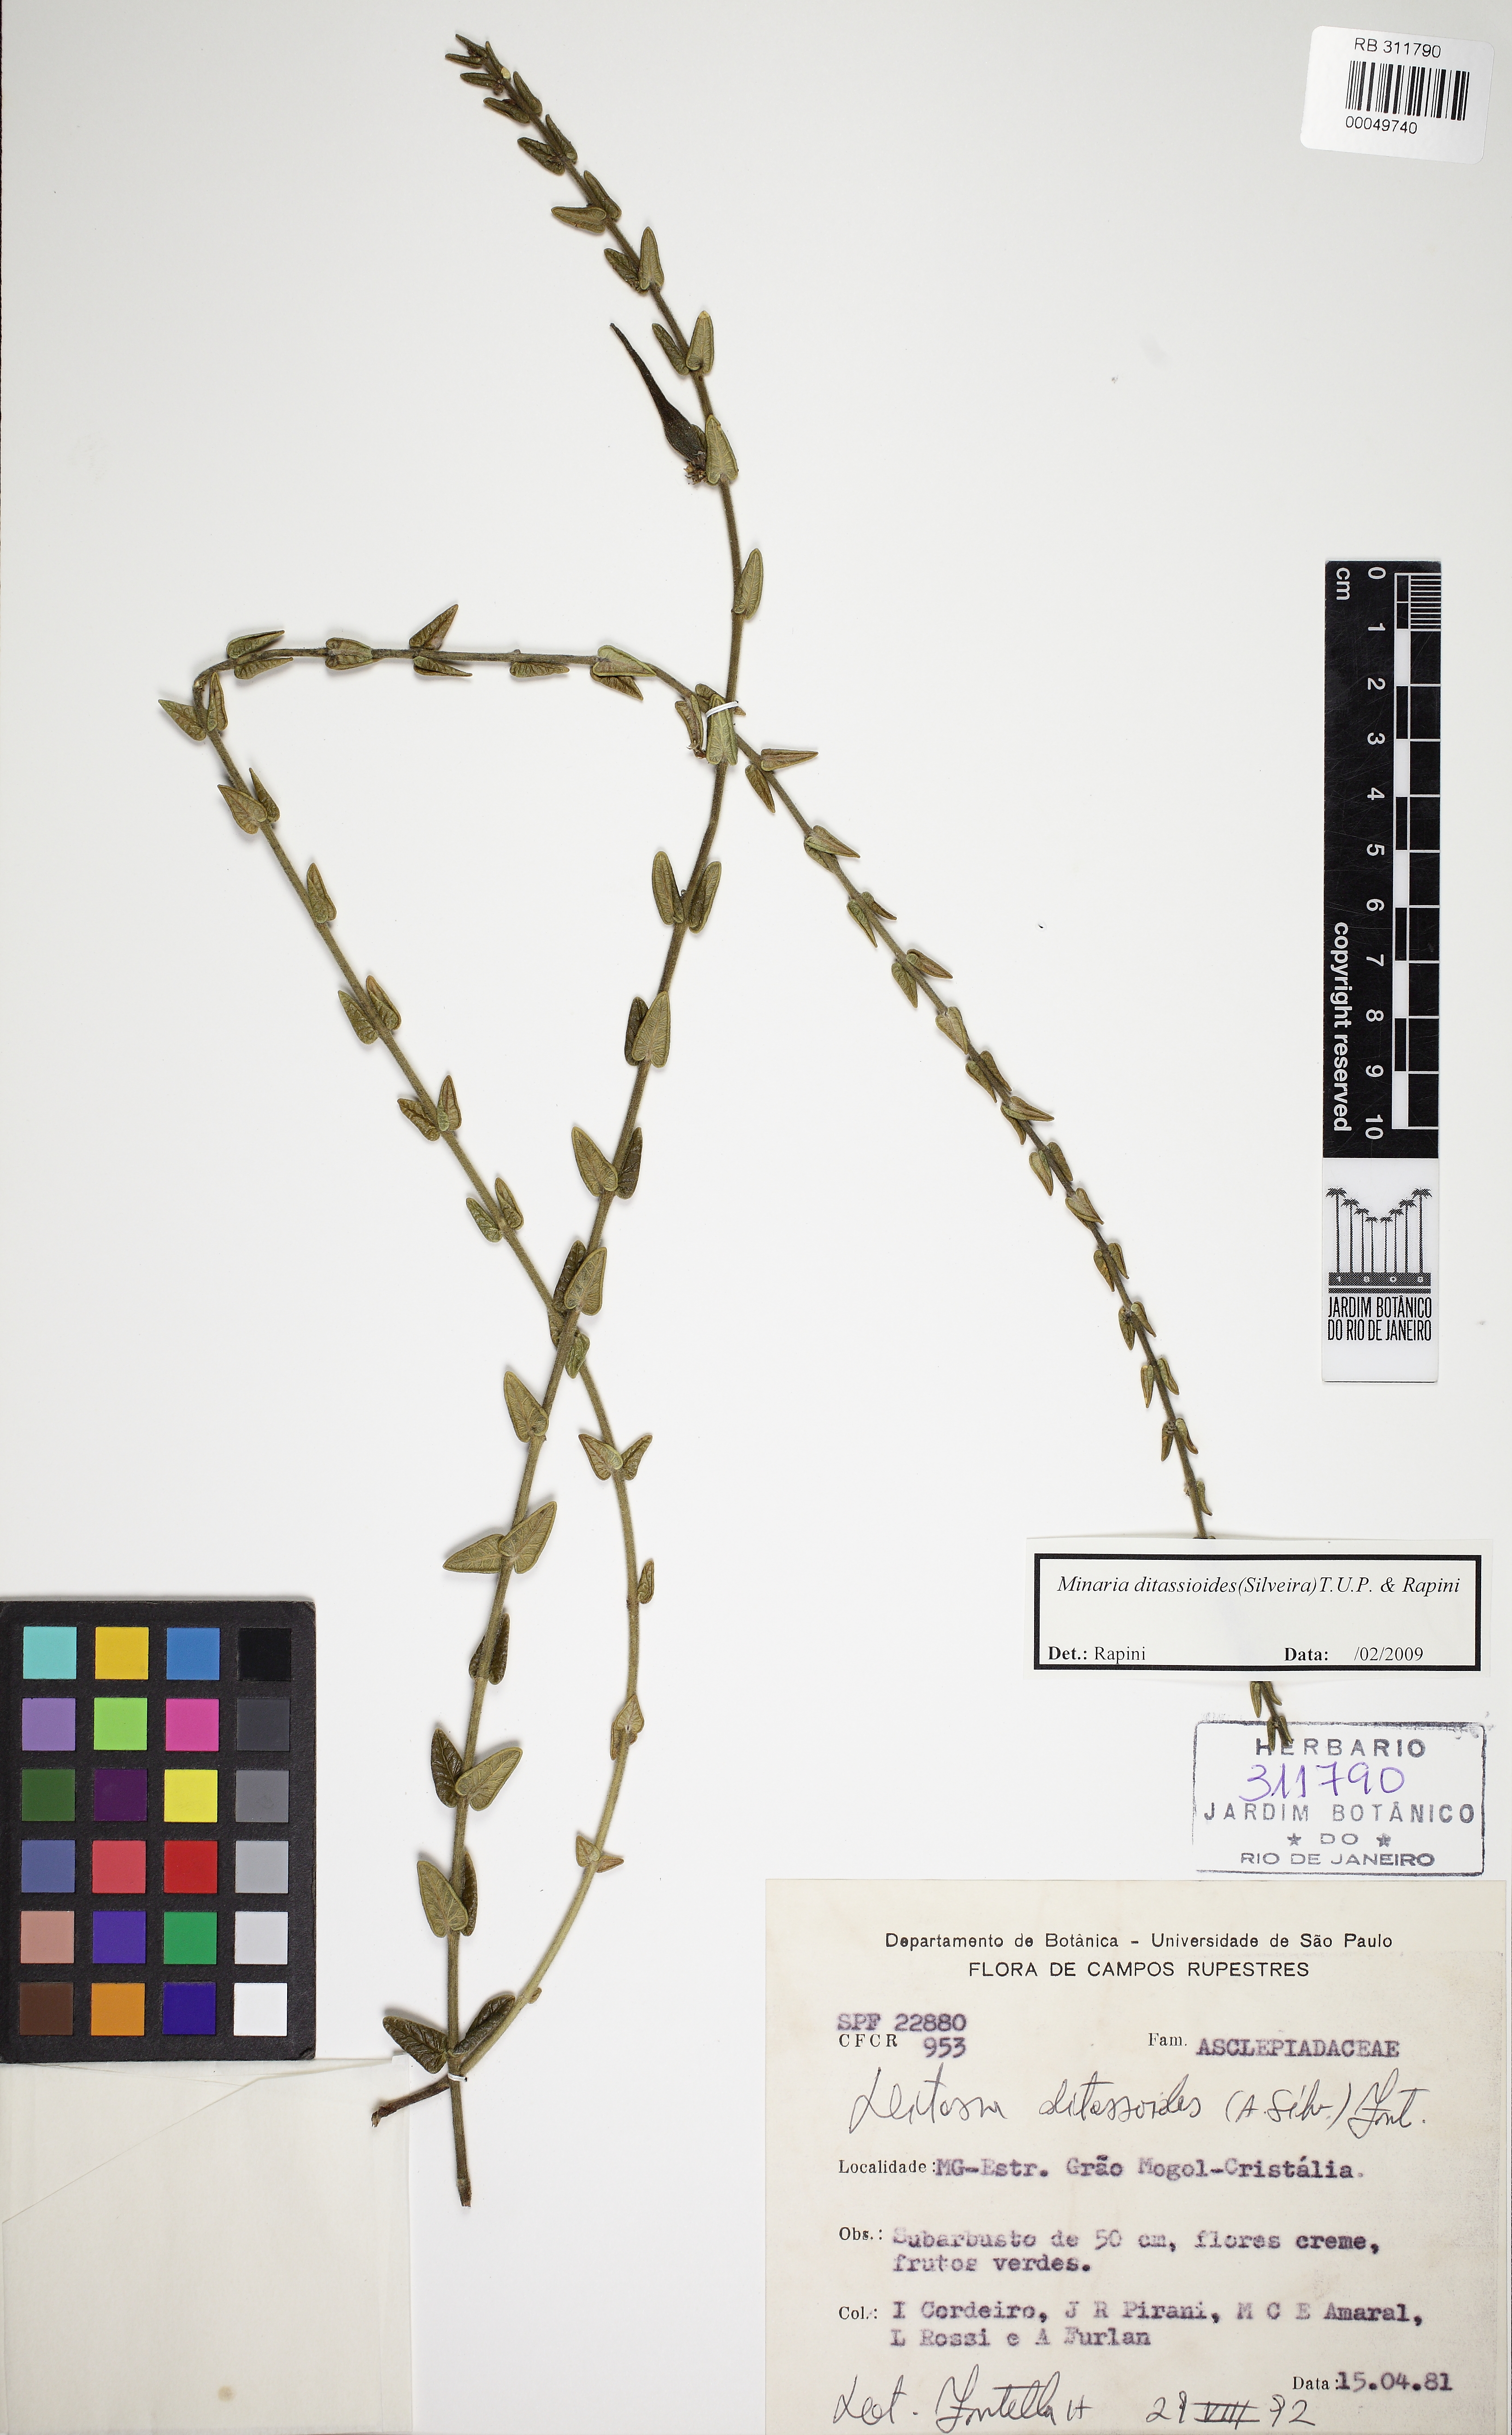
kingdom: Plantae
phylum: Tracheophyta
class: Magnoliopsida
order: Gentianales
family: Apocynaceae
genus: Minaria
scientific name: Minaria ditassoides
